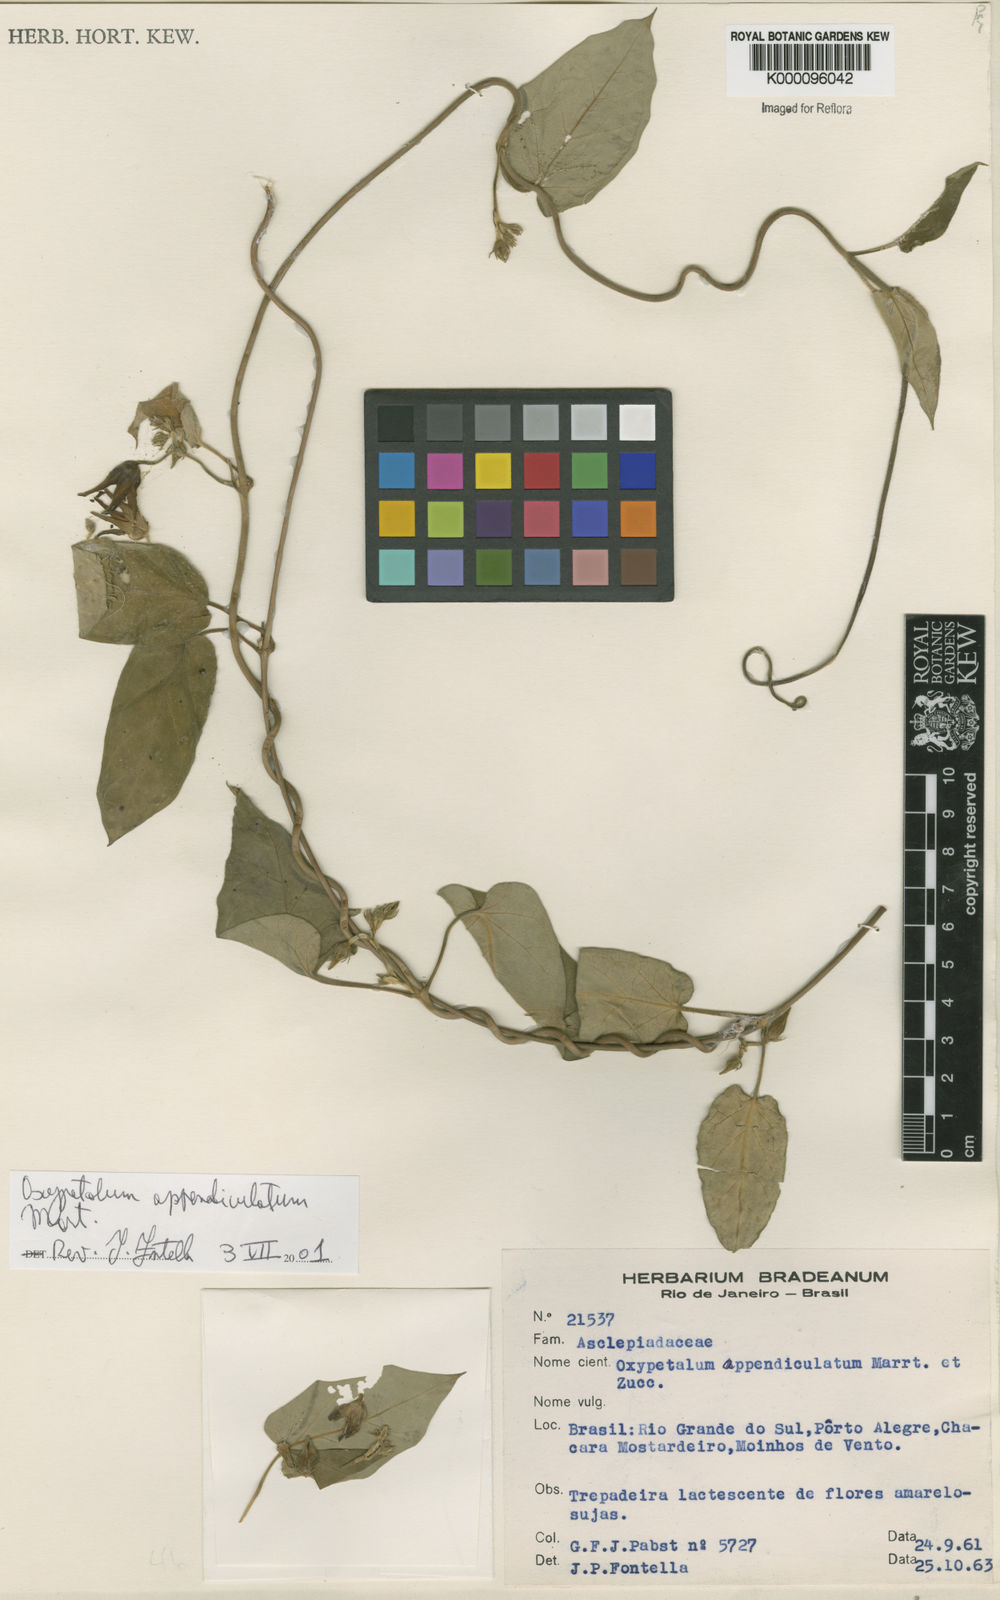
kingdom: Plantae
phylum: Tracheophyta
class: Magnoliopsida
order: Gentianales
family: Apocynaceae
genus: Oxypetalum
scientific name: Oxypetalum appendiculatum
